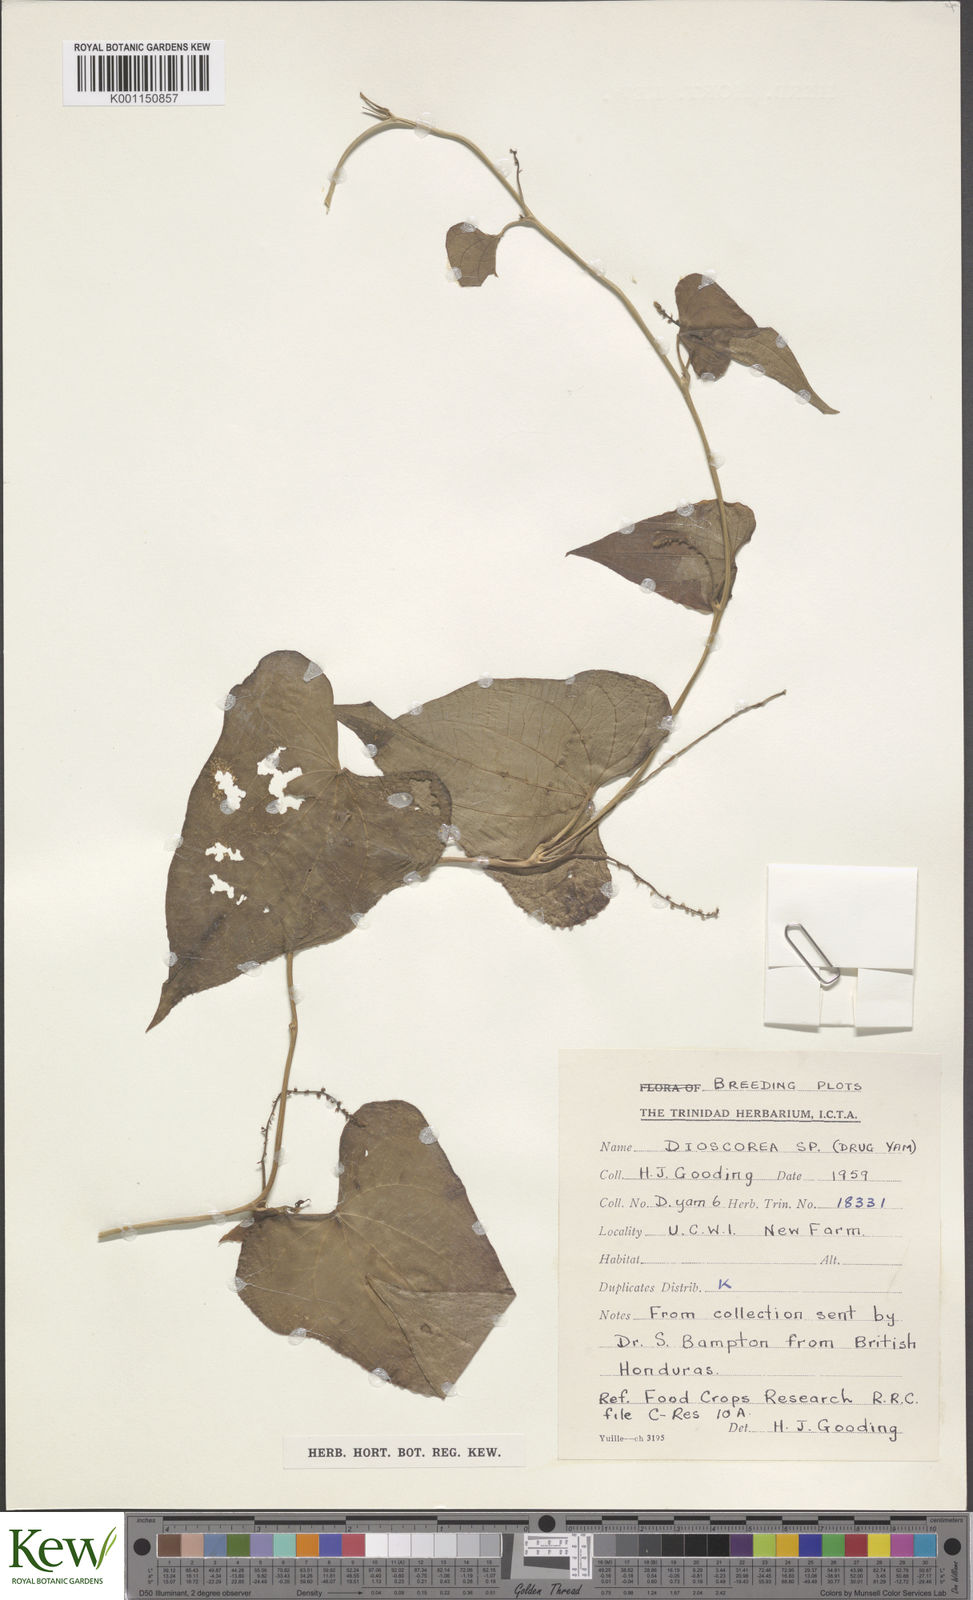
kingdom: Plantae
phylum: Tracheophyta
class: Liliopsida
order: Dioscoreales
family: Dioscoreaceae
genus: Dioscorea
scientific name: Dioscorea
